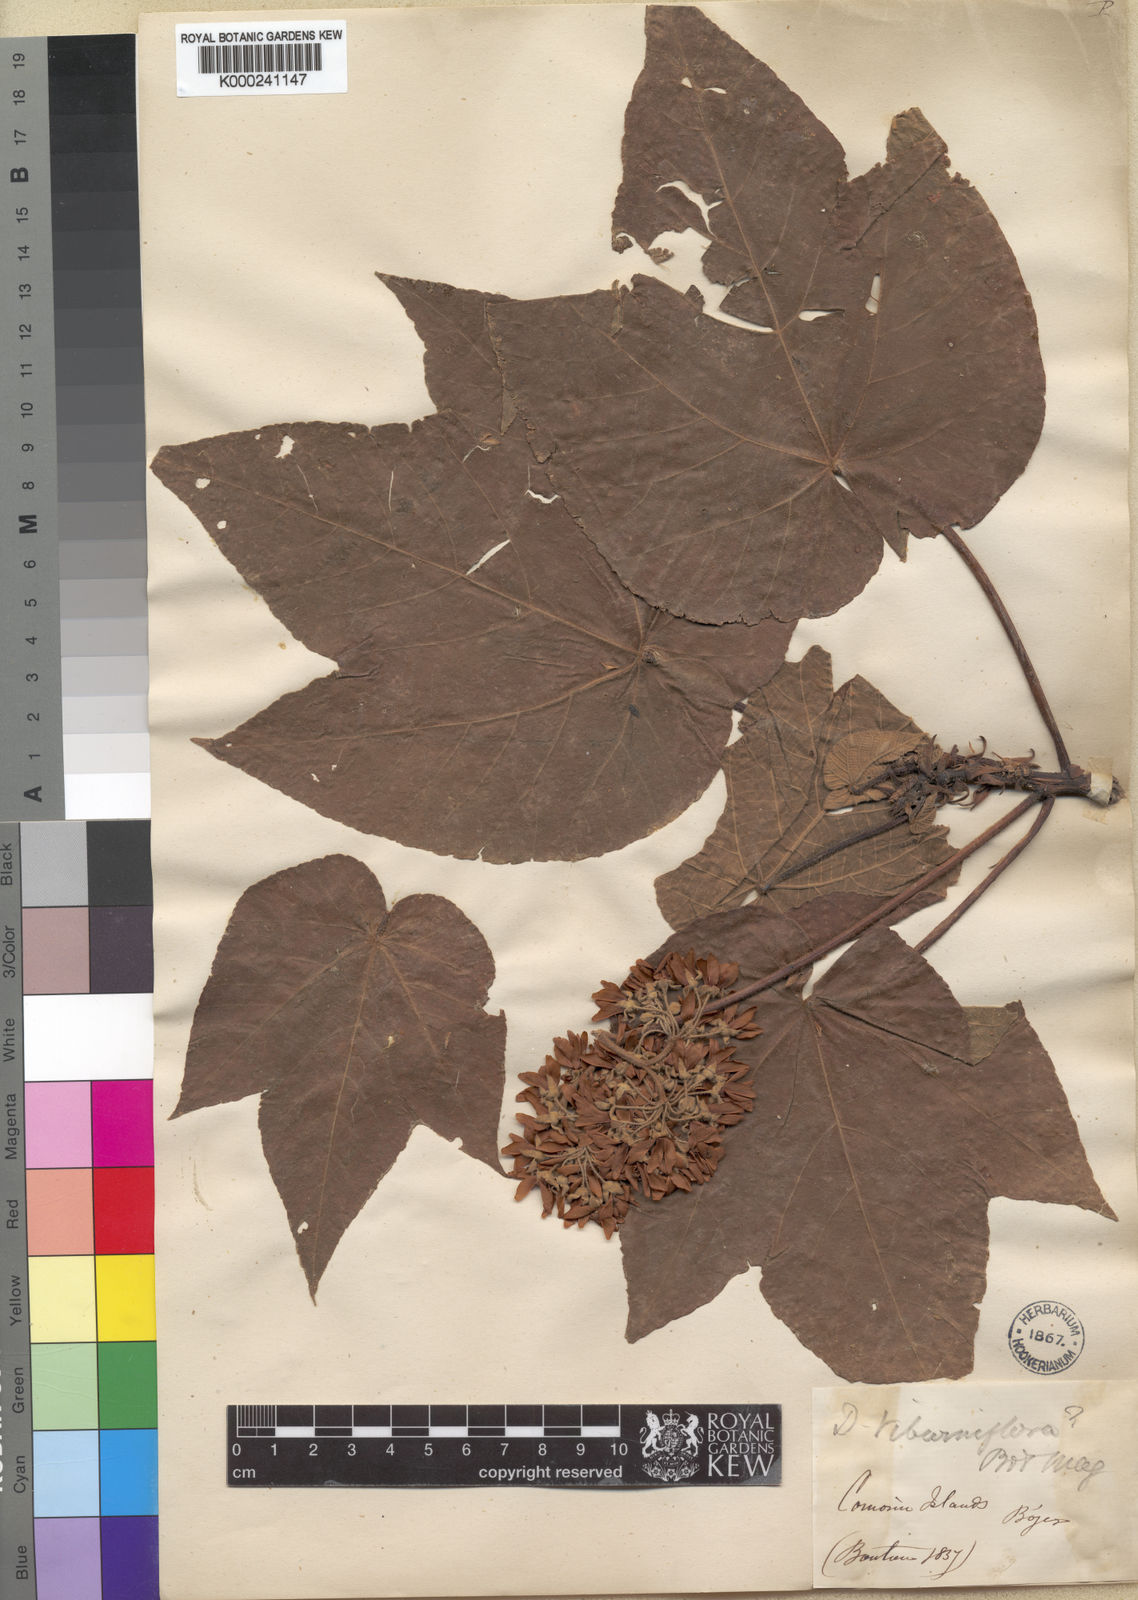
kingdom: Plantae
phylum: Tracheophyta
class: Magnoliopsida
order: Malvales
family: Malvaceae
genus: Dombeya
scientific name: Dombeya viburniflora
